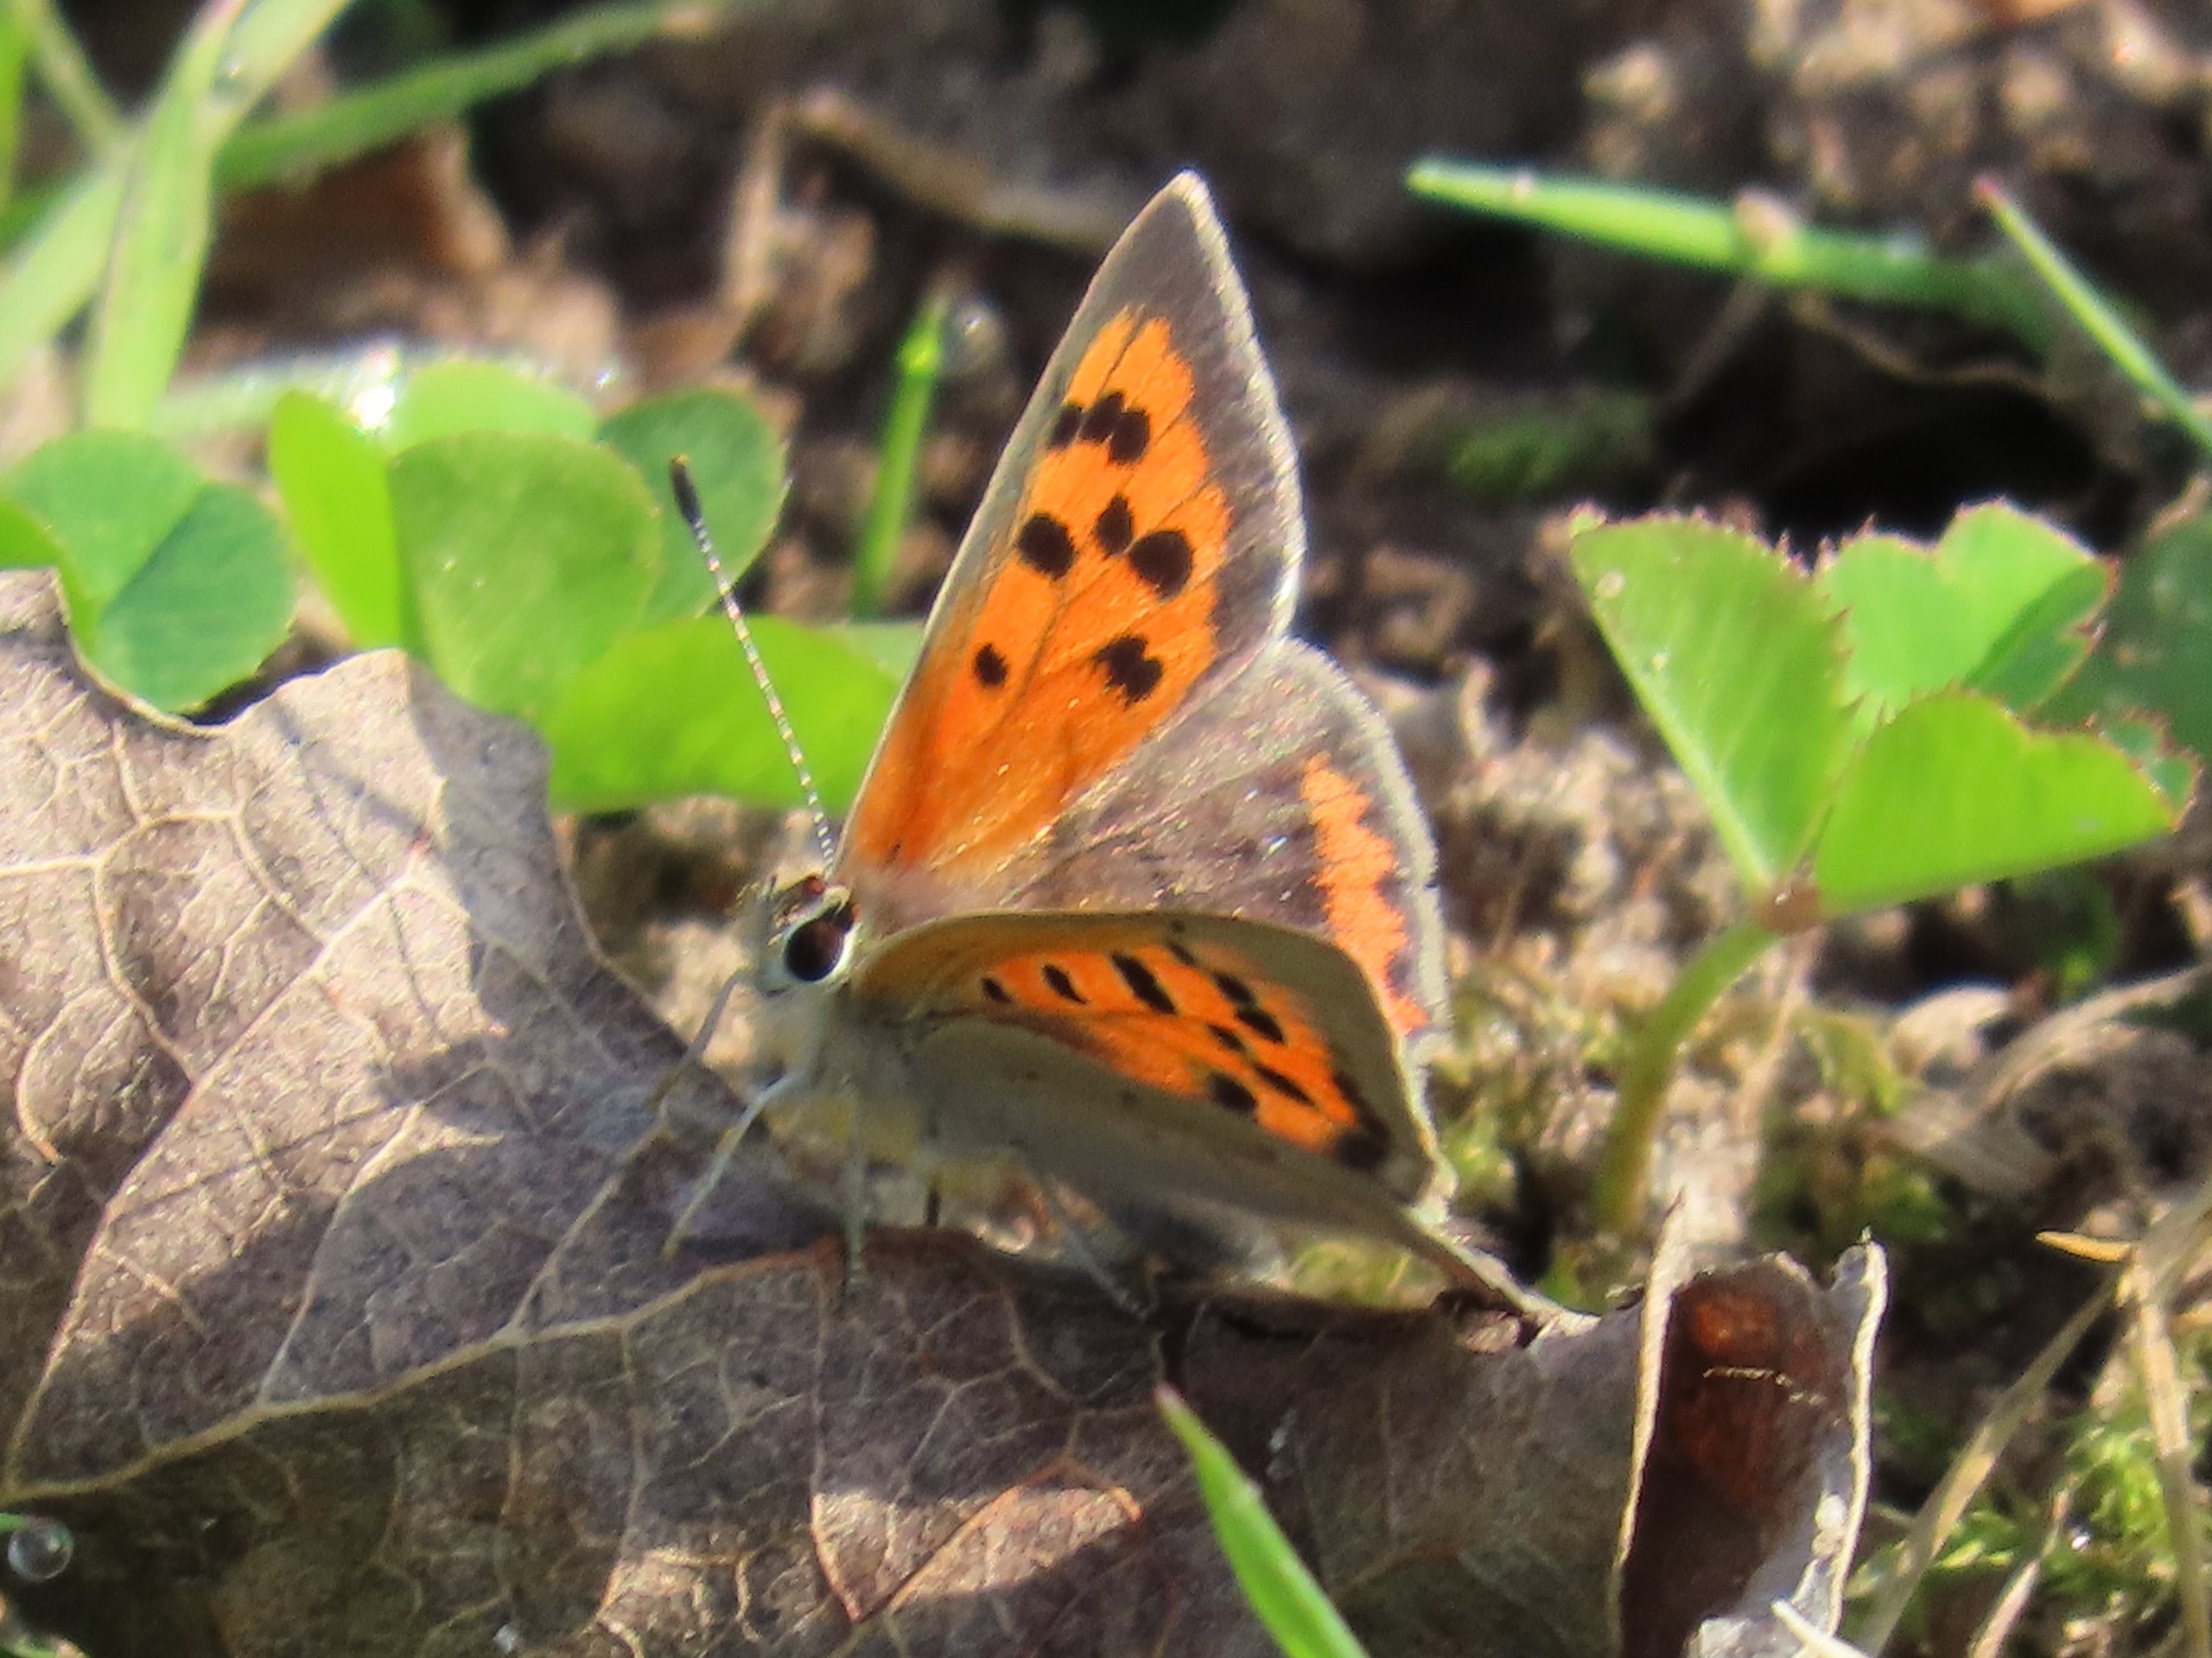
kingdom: Animalia
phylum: Arthropoda
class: Insecta
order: Lepidoptera
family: Lycaenidae
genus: Lycaena
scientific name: Lycaena phlaeas
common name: Lille ildfugl
